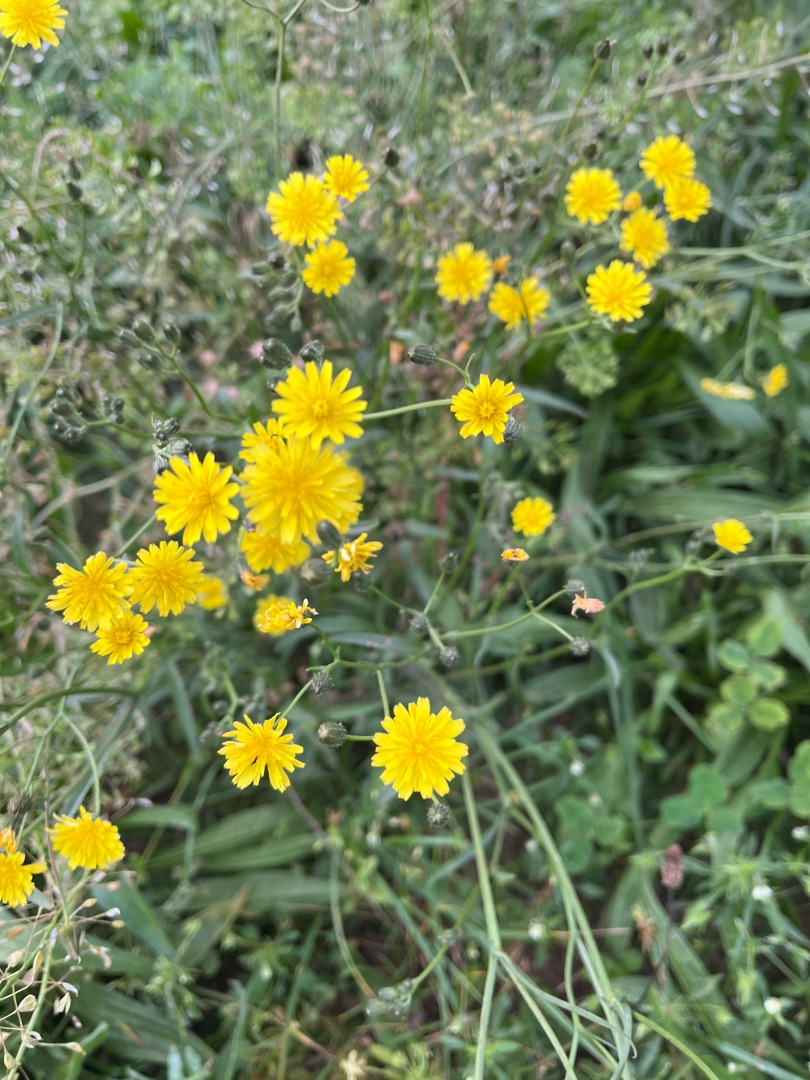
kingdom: Plantae
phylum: Tracheophyta
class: Magnoliopsida
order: Asterales
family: Asteraceae
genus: Crepis
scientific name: Crepis capillaris
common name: Grøn høgeskæg
